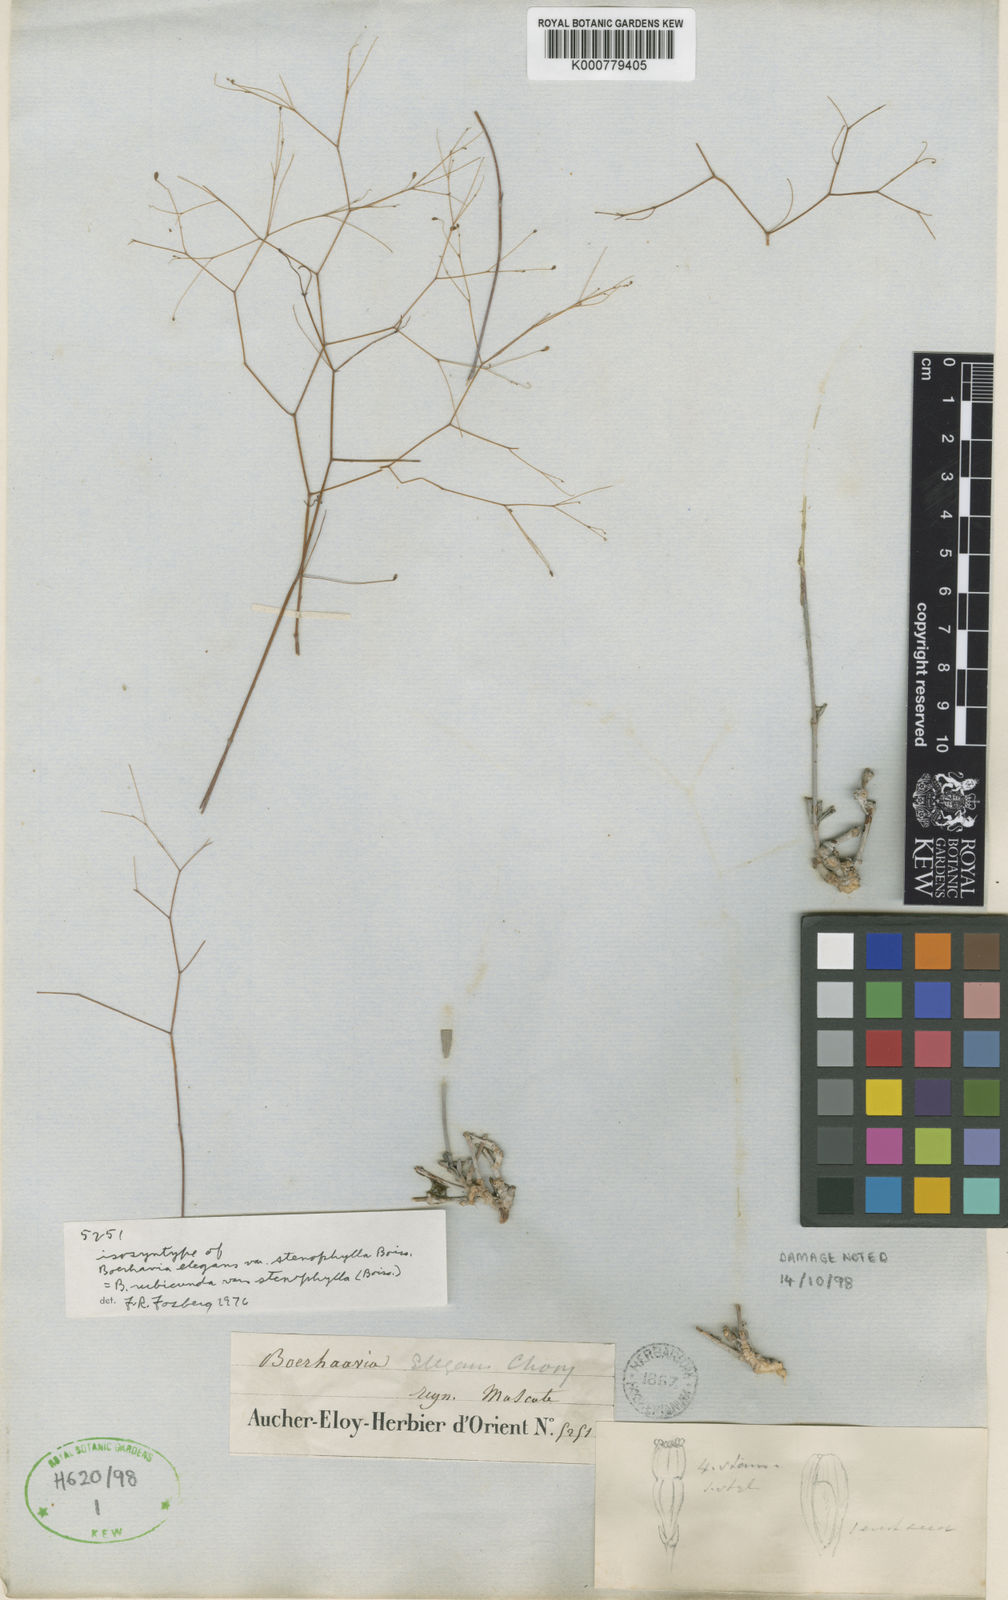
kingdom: Plantae
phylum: Tracheophyta
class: Magnoliopsida
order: Caryophyllales
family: Nyctaginaceae
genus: Boerhavia
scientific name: Boerhavia elegans
